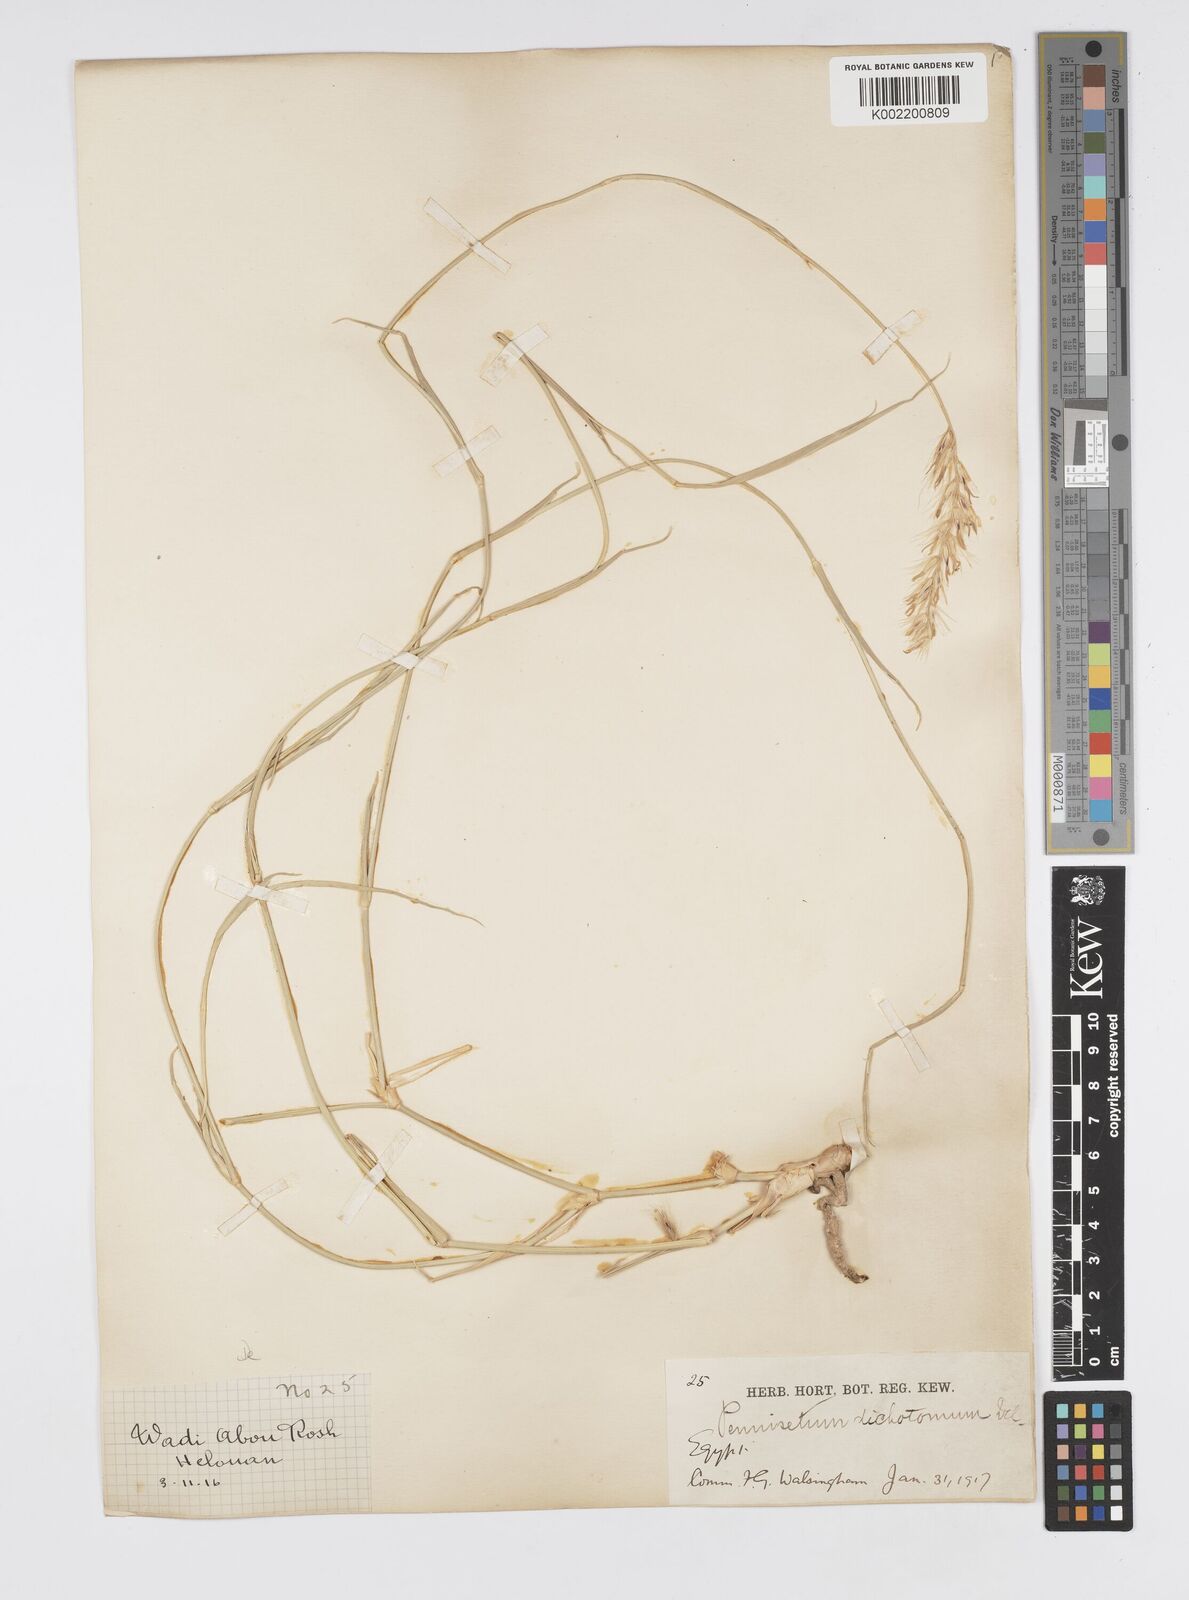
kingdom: Plantae
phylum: Tracheophyta
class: Liliopsida
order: Poales
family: Poaceae
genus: Cenchrus
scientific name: Cenchrus divisus
